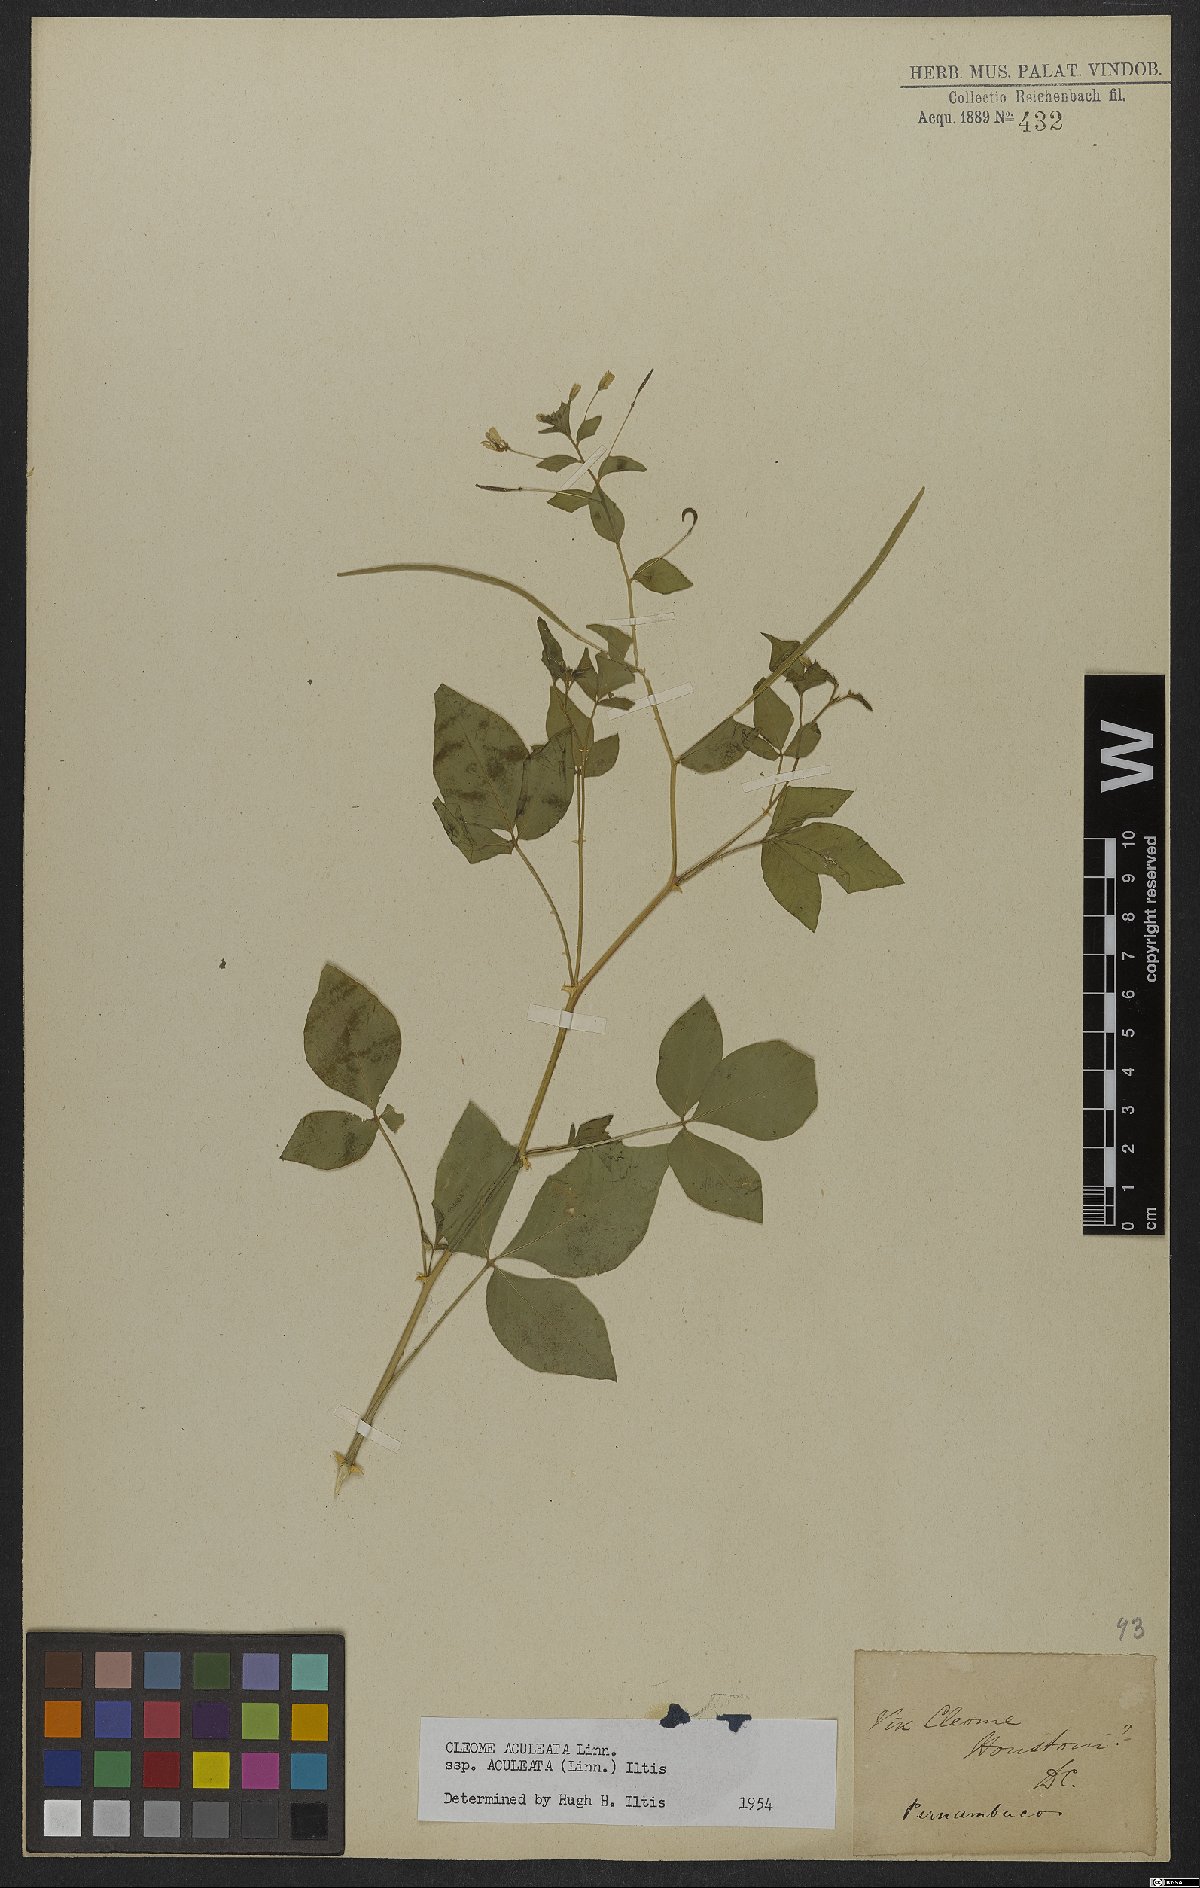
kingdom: Plantae
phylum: Tracheophyta
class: Magnoliopsida
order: Brassicales
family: Cleomaceae
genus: Tarenaya
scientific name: Tarenaya aculeata
